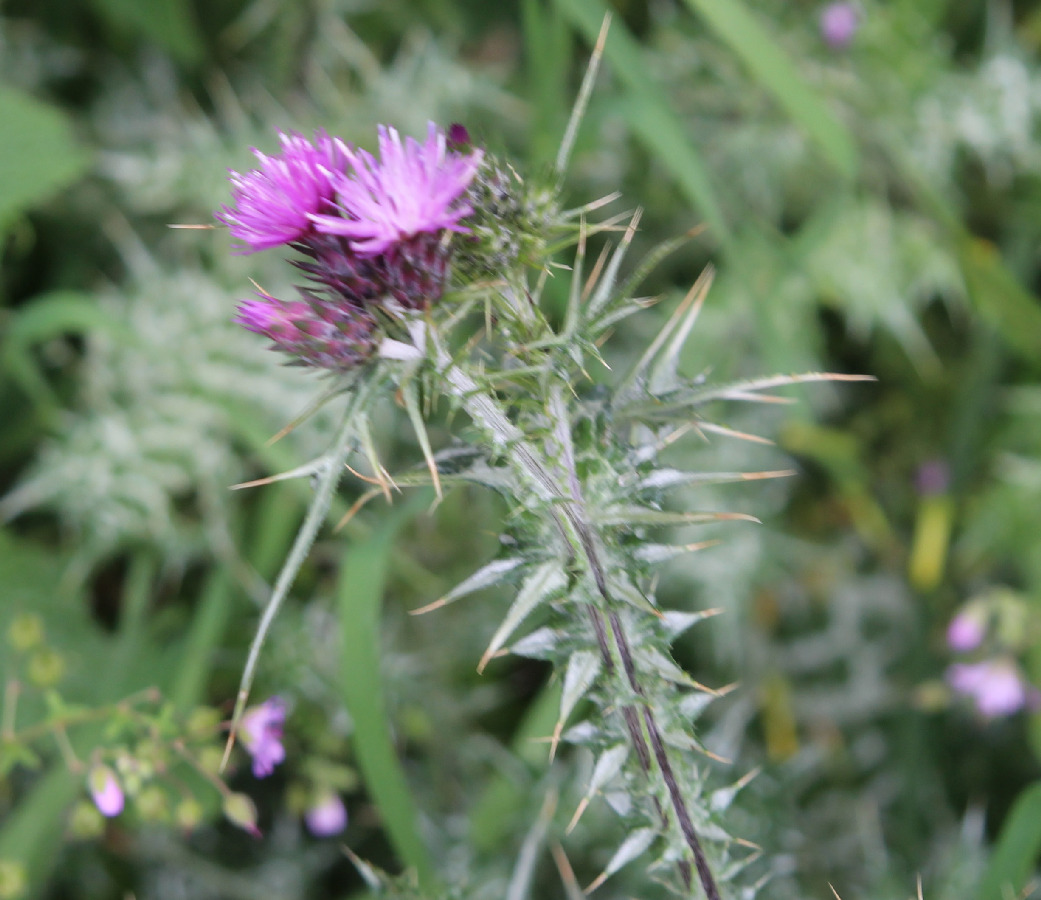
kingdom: Plantae
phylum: Tracheophyta
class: Magnoliopsida
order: Asterales
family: Asteraceae
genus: Carduus
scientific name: Carduus pycnocephalus
